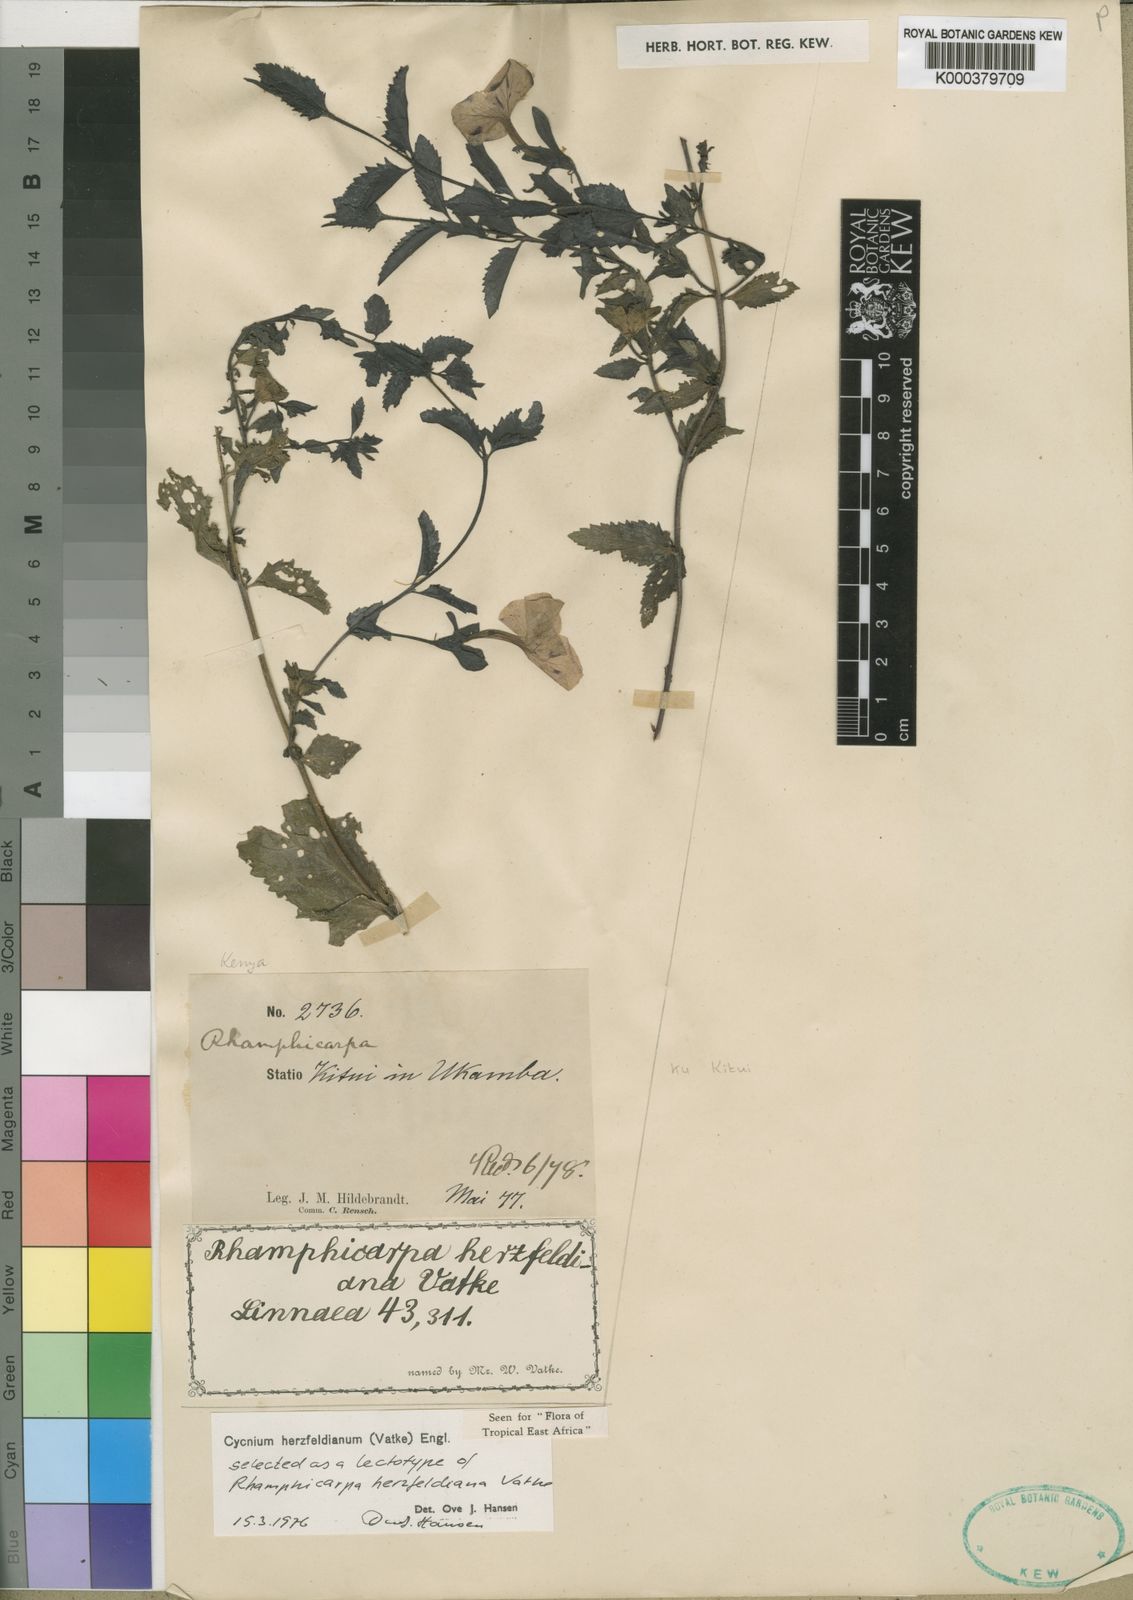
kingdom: Plantae
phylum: Tracheophyta
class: Magnoliopsida
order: Lamiales
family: Orobanchaceae
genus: Cycnium
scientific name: Cycnium herzfeldianum
